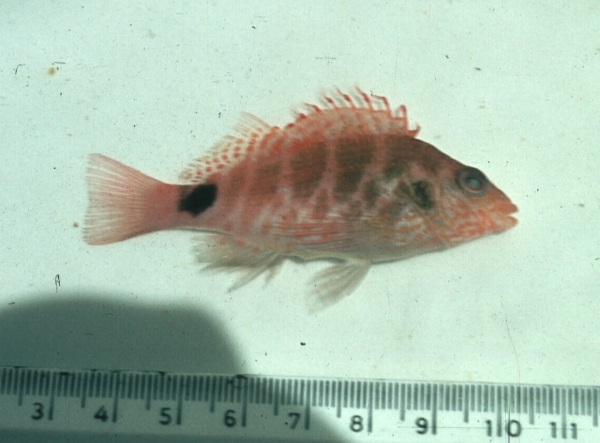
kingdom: Animalia
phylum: Chordata
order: Perciformes
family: Cirrhitidae
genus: Cirrhitops
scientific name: Cirrhitops fasciatus
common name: Redbarred hawkfish
